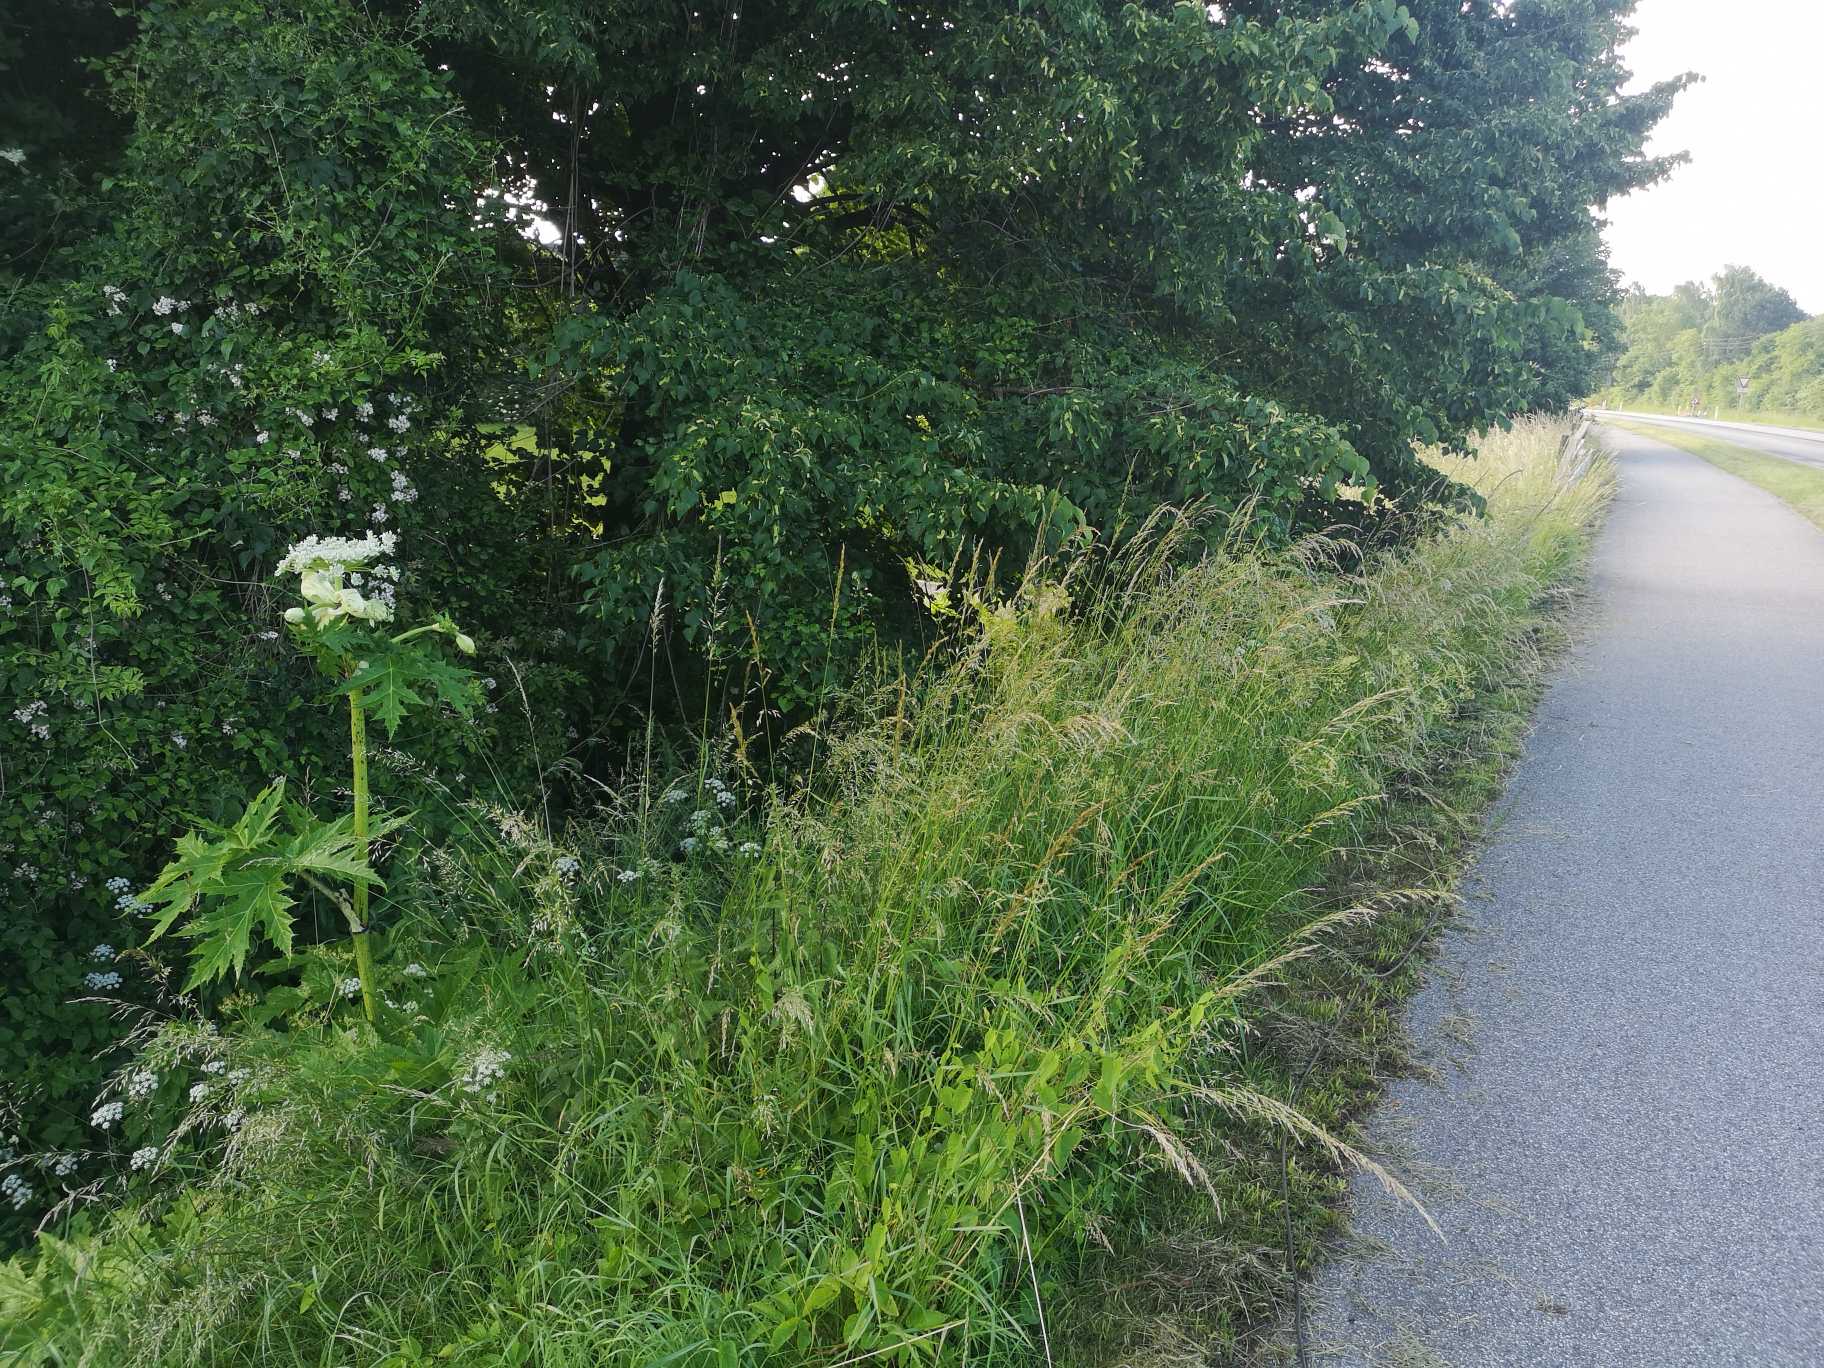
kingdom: Plantae
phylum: Tracheophyta
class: Magnoliopsida
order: Apiales
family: Apiaceae
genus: Heracleum
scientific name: Heracleum mantegazzianum
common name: Kæmpe-bjørneklo
